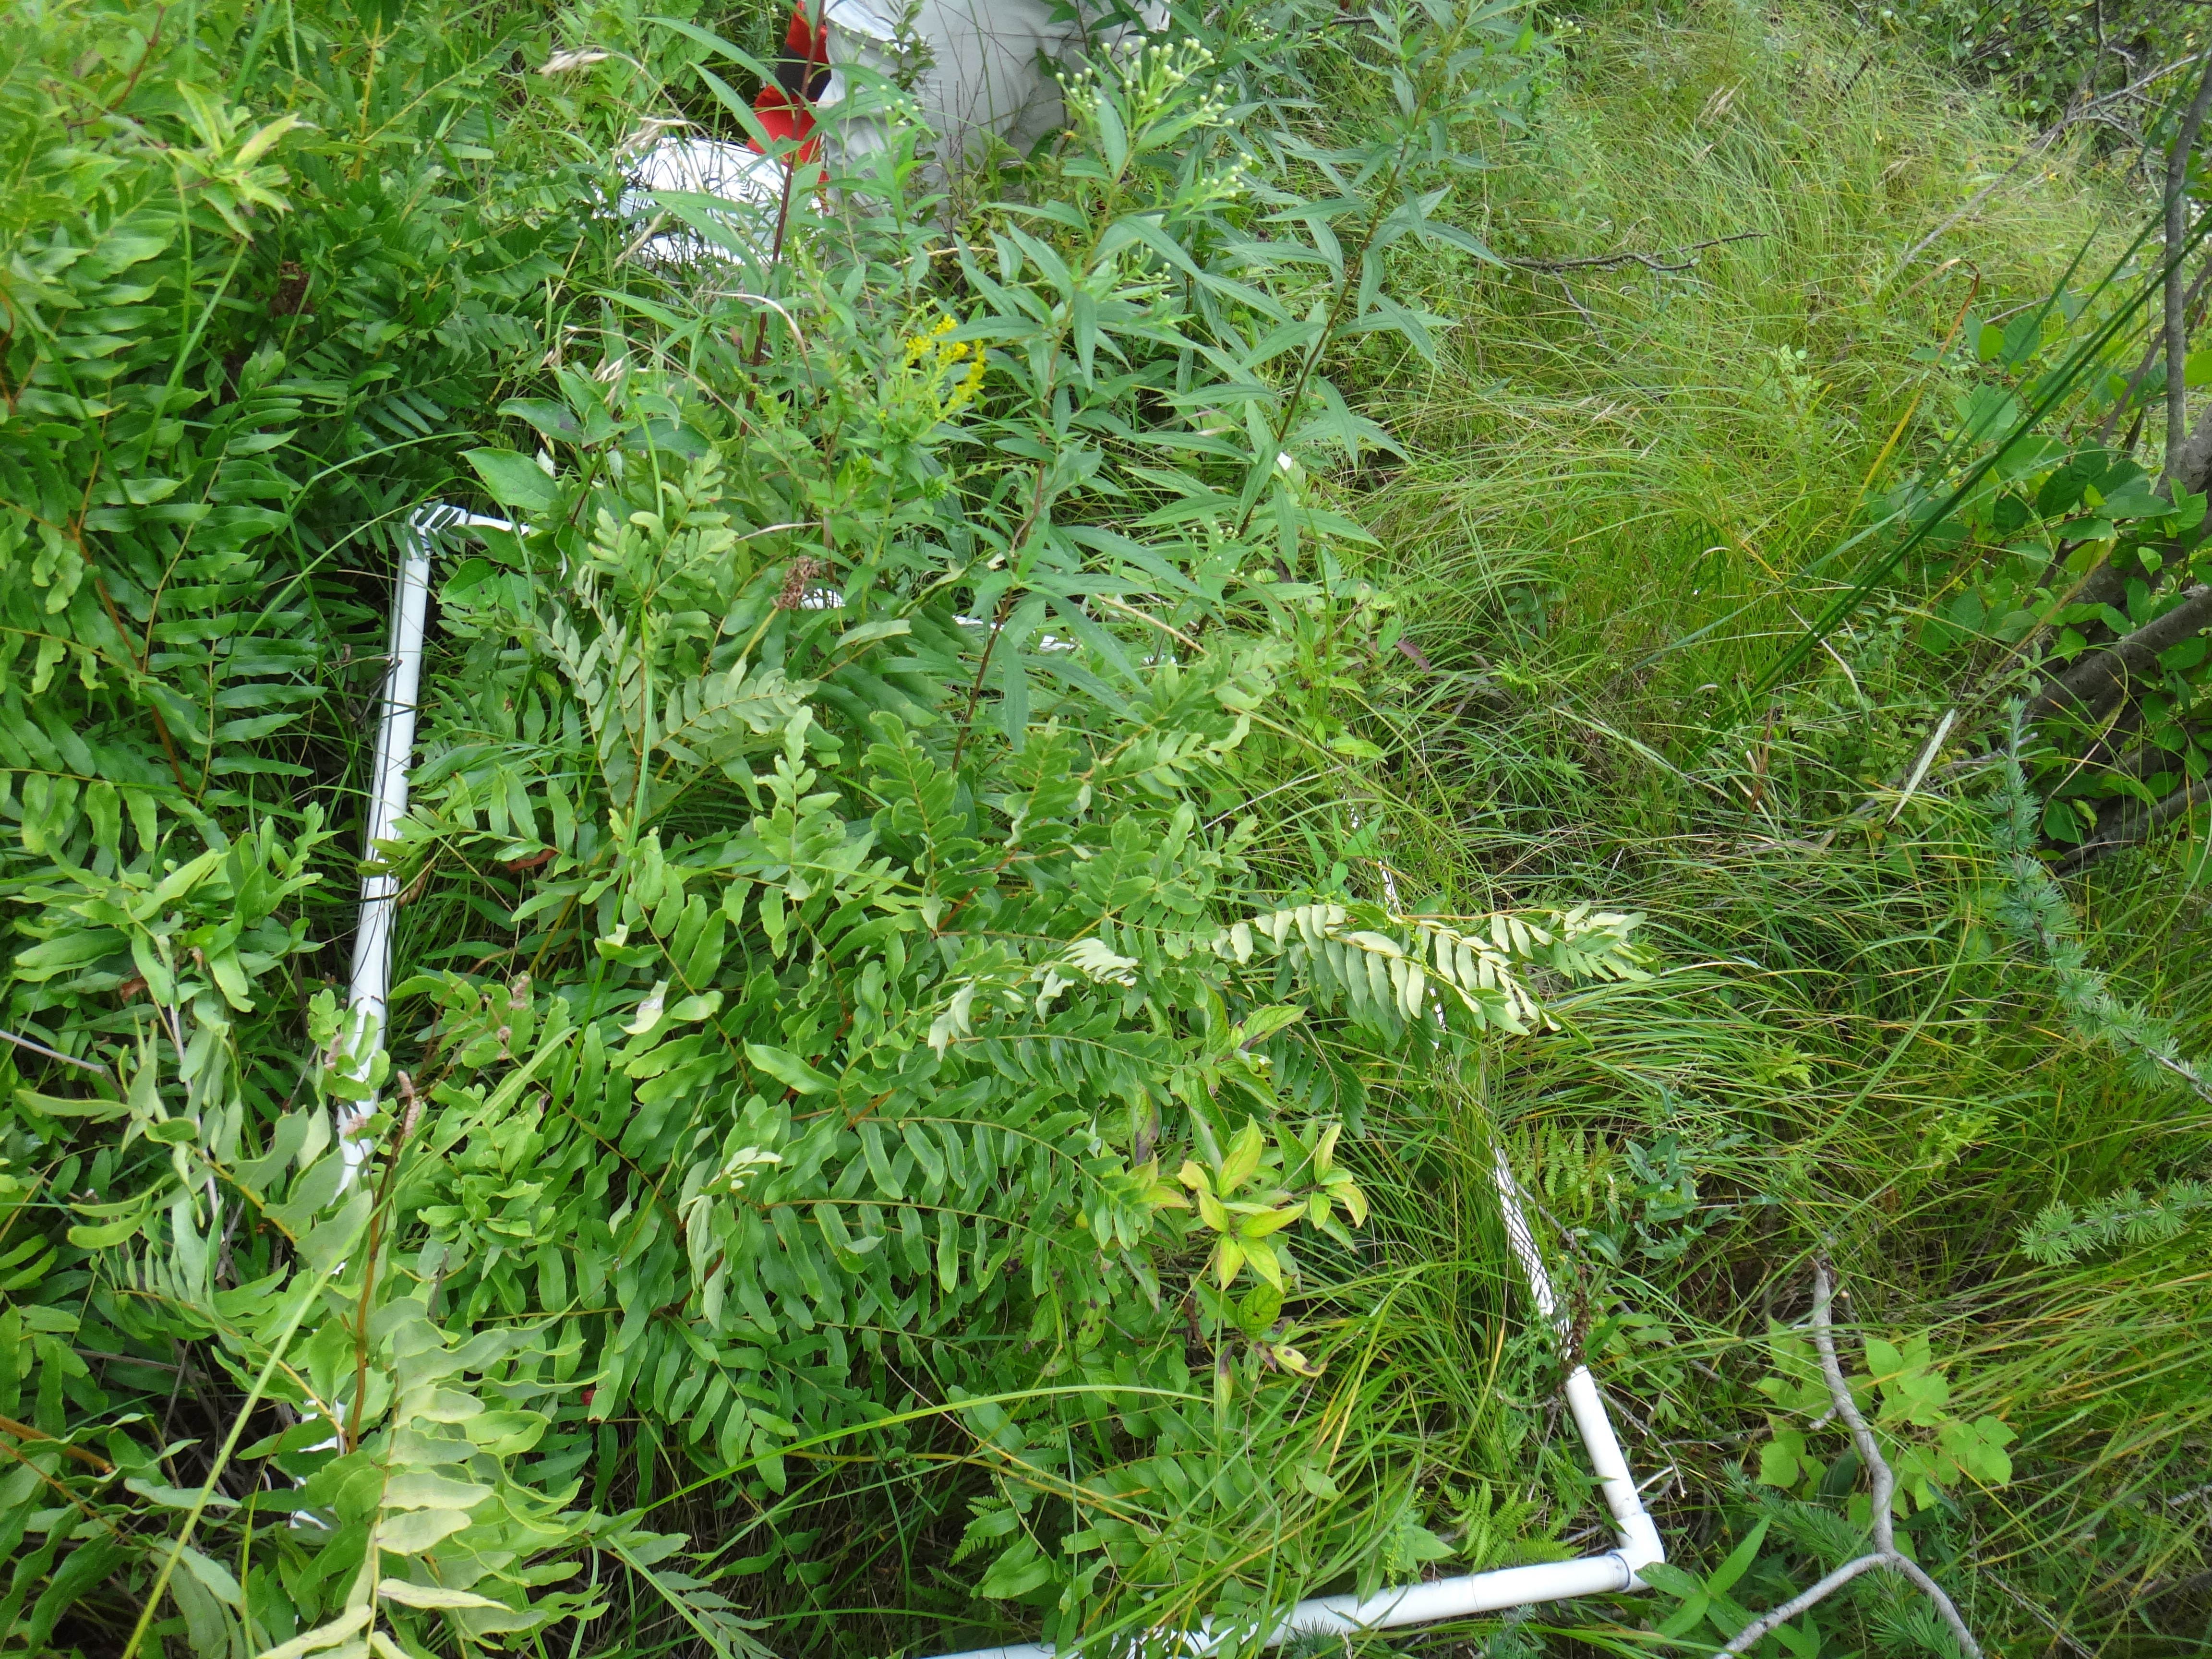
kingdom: Plantae
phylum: Tracheophyta
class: Magnoliopsida
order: Asterales
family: Asteraceae
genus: Solidago
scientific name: Solidago canadensis
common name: Canada goldenrod
